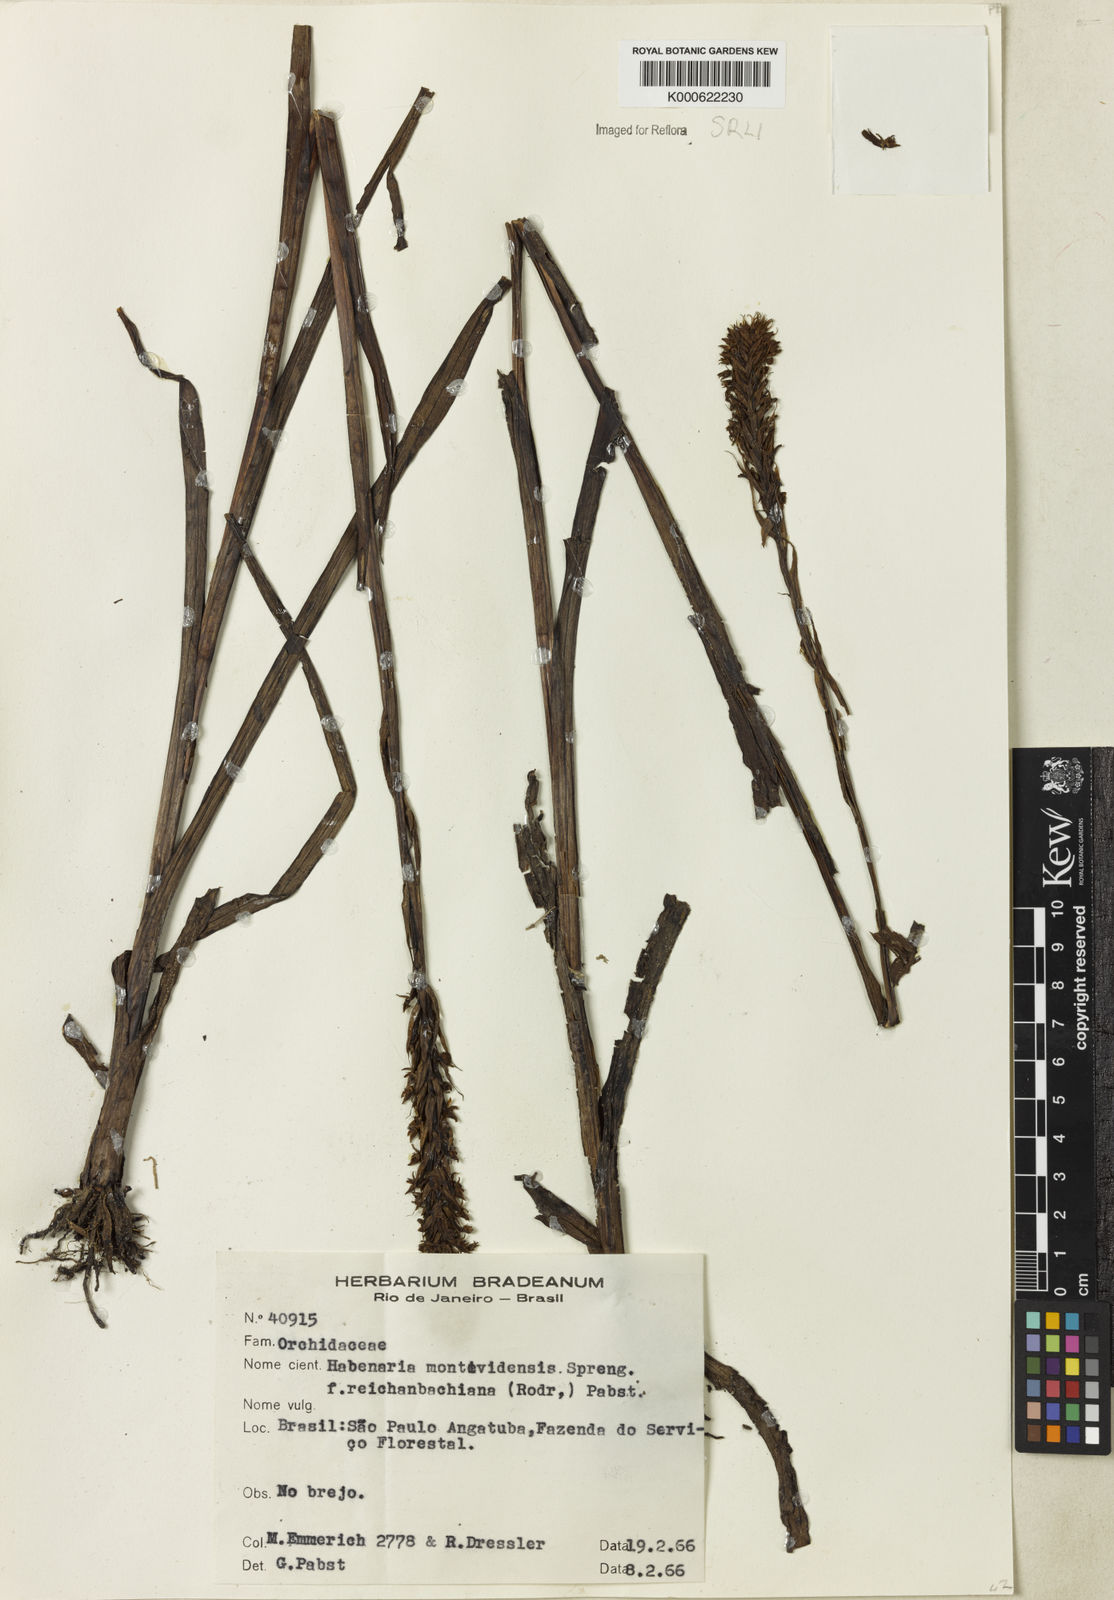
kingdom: Plantae
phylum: Tracheophyta
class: Liliopsida
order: Asparagales
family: Orchidaceae
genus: Habenaria
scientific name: Habenaria parviflora
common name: Small flowered habenaria
